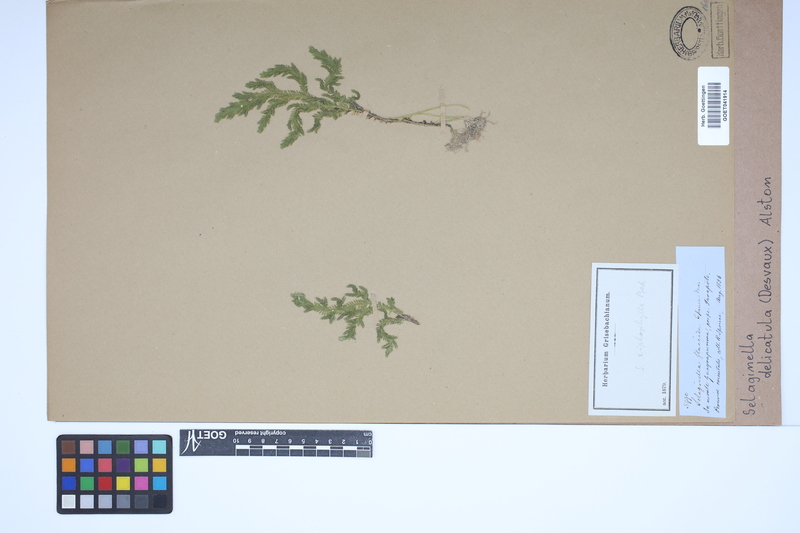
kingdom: Plantae
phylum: Tracheophyta
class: Lycopodiopsida
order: Selaginellales
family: Selaginellaceae
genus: Selaginella
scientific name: Selaginella delicatula
